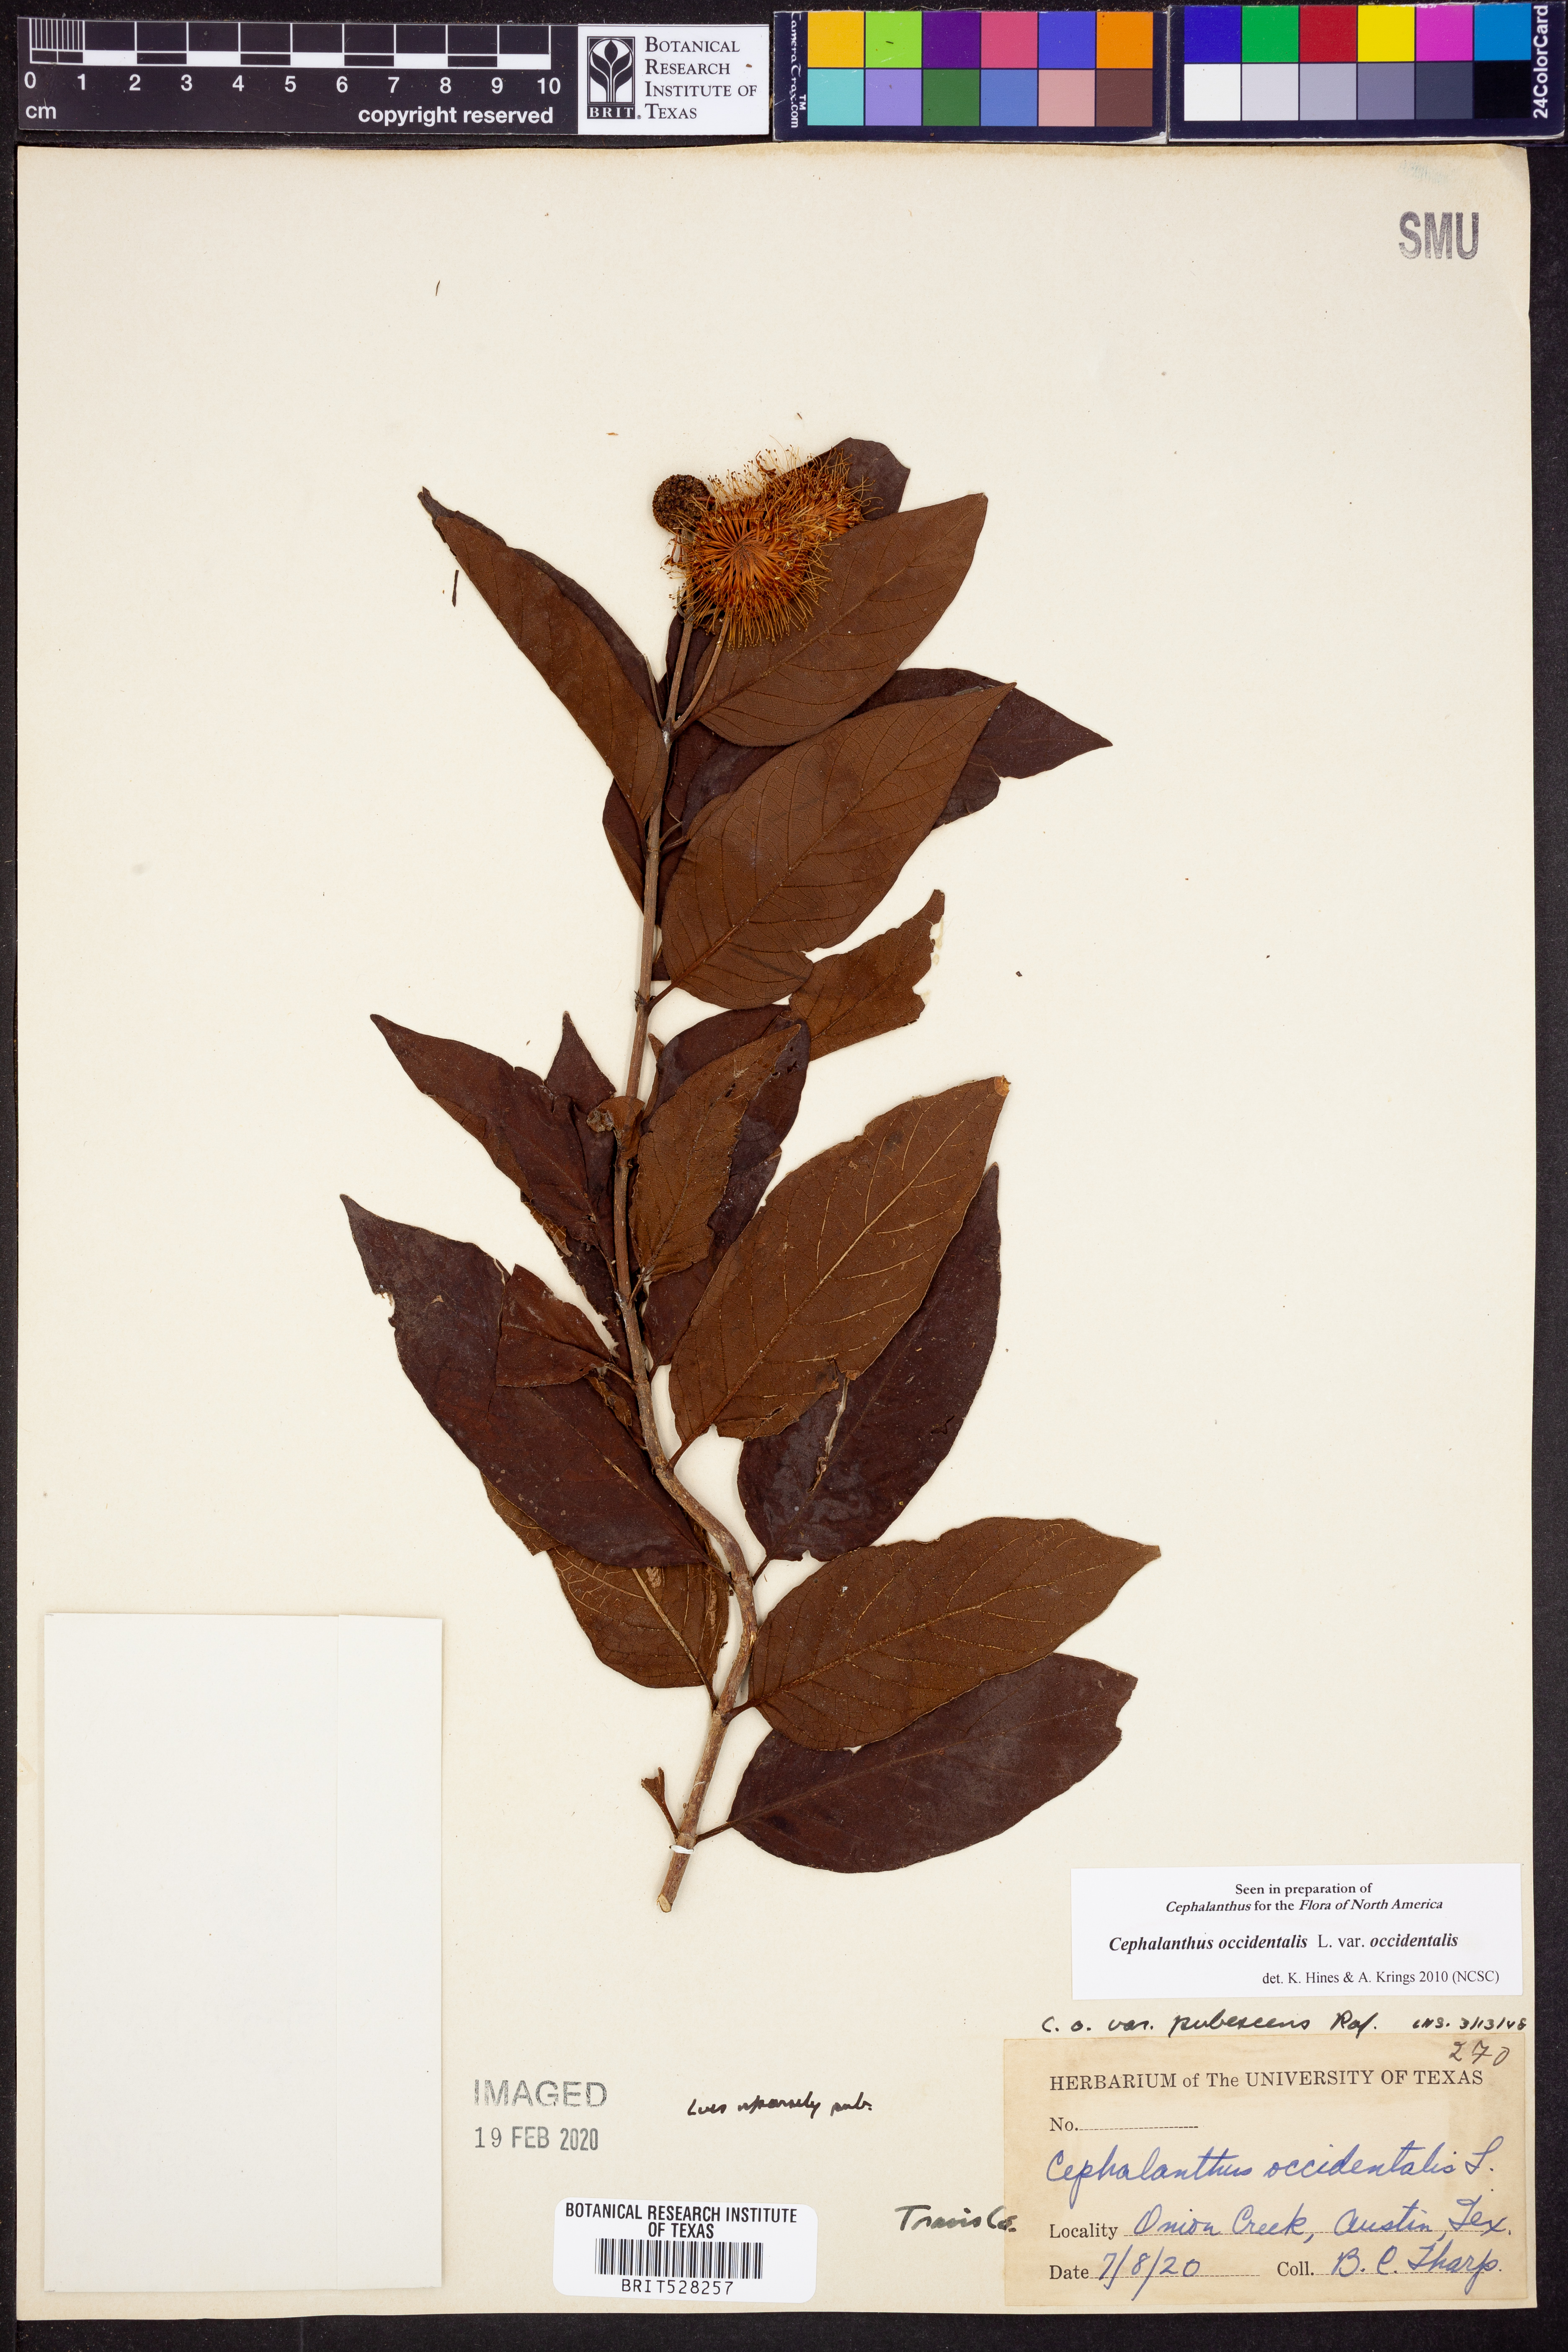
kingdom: Plantae
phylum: Tracheophyta
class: Magnoliopsida
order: Gentianales
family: Rubiaceae
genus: Cephalanthus
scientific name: Cephalanthus occidentalis
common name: Button-willow
